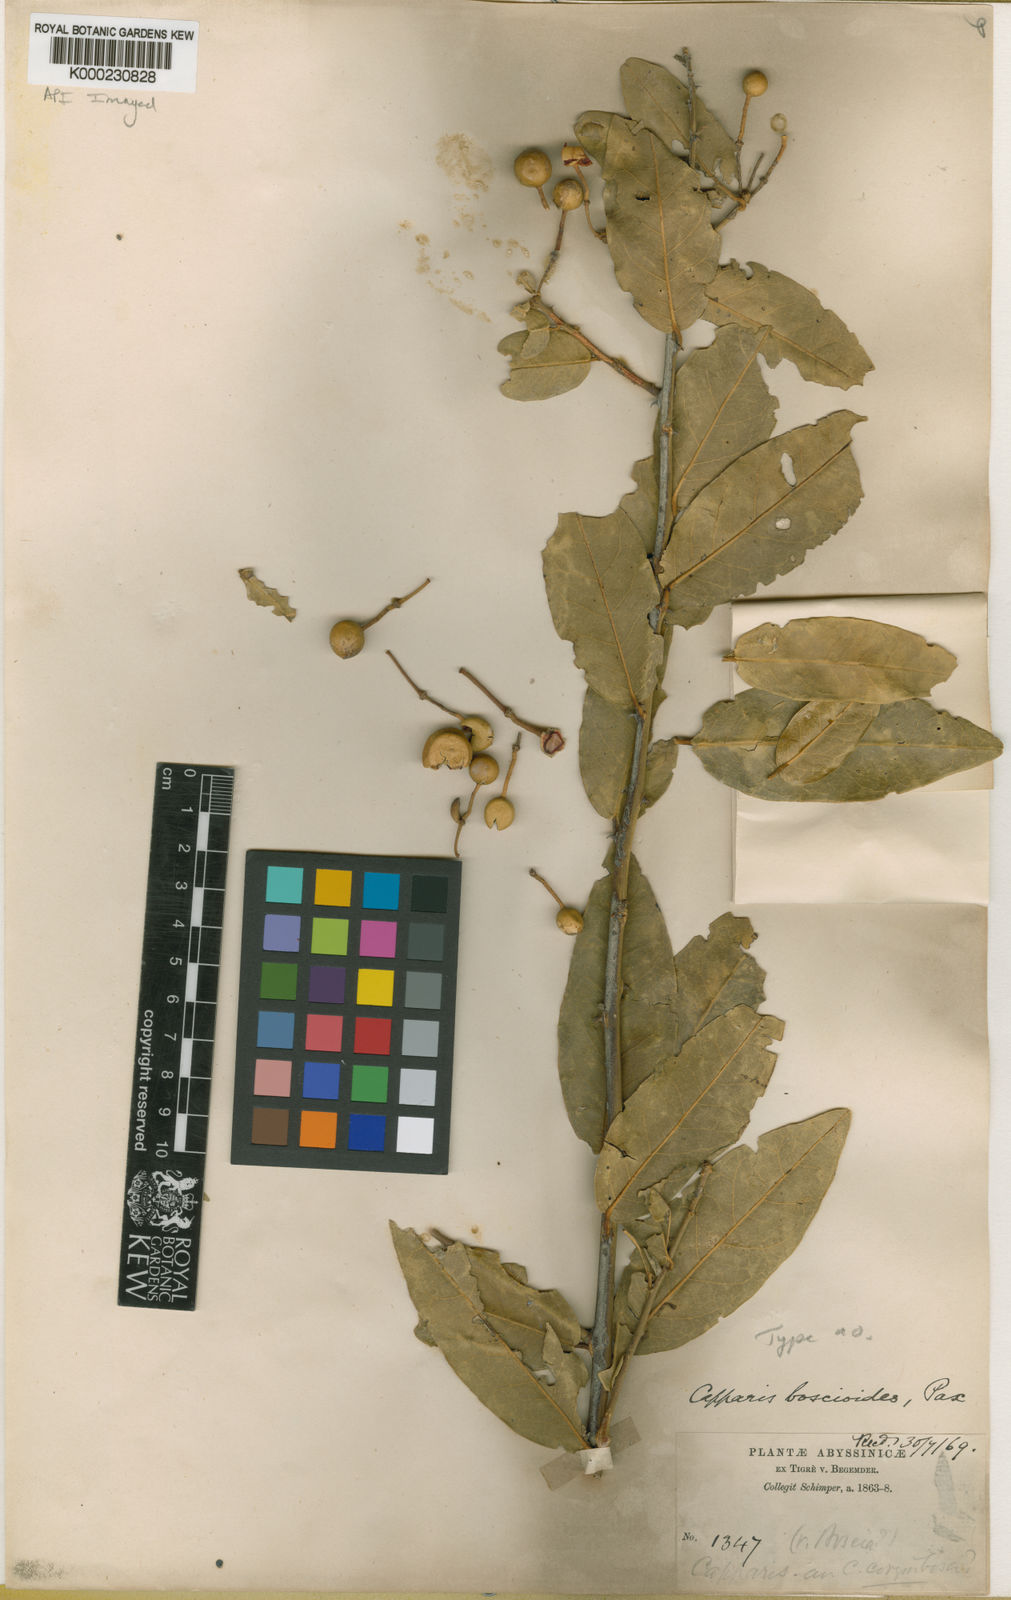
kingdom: Plantae
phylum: Tracheophyta
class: Magnoliopsida
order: Brassicales
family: Capparaceae
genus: Capparis
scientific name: Capparis
